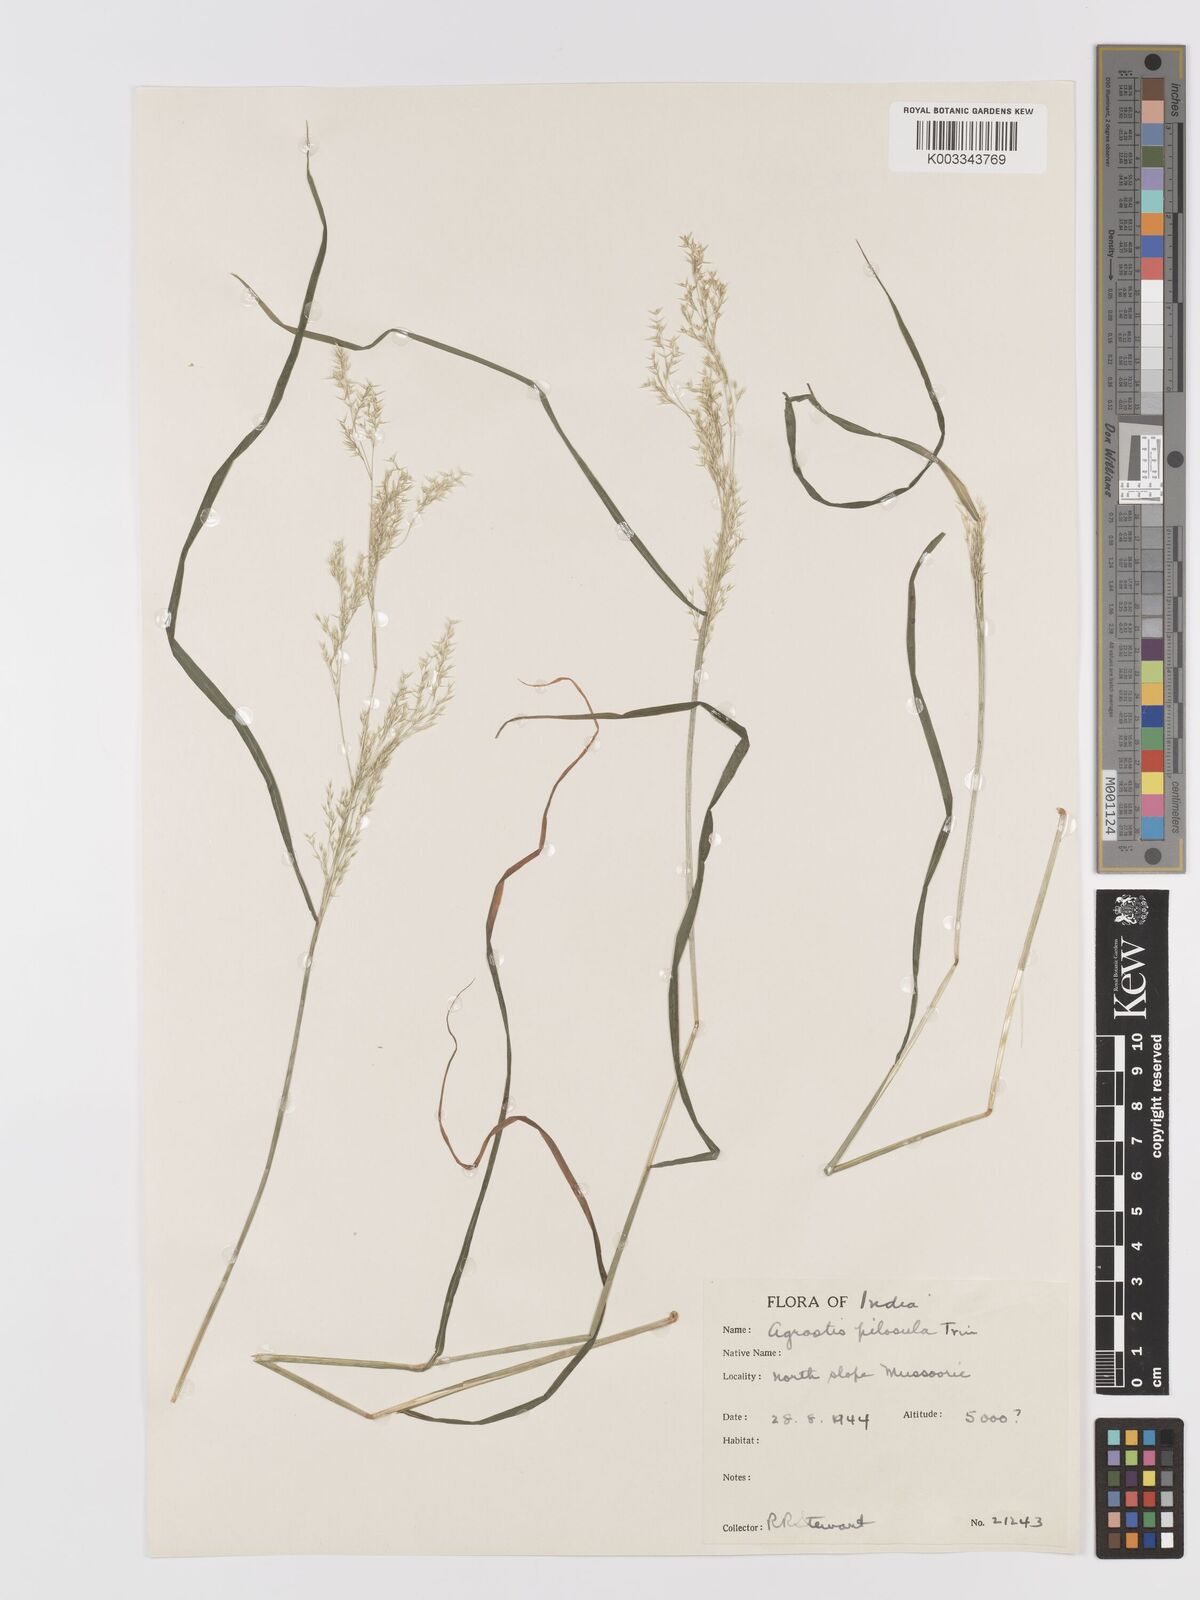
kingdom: Plantae
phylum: Tracheophyta
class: Liliopsida
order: Poales
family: Poaceae
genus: Agrostis
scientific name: Agrostis pilosula
